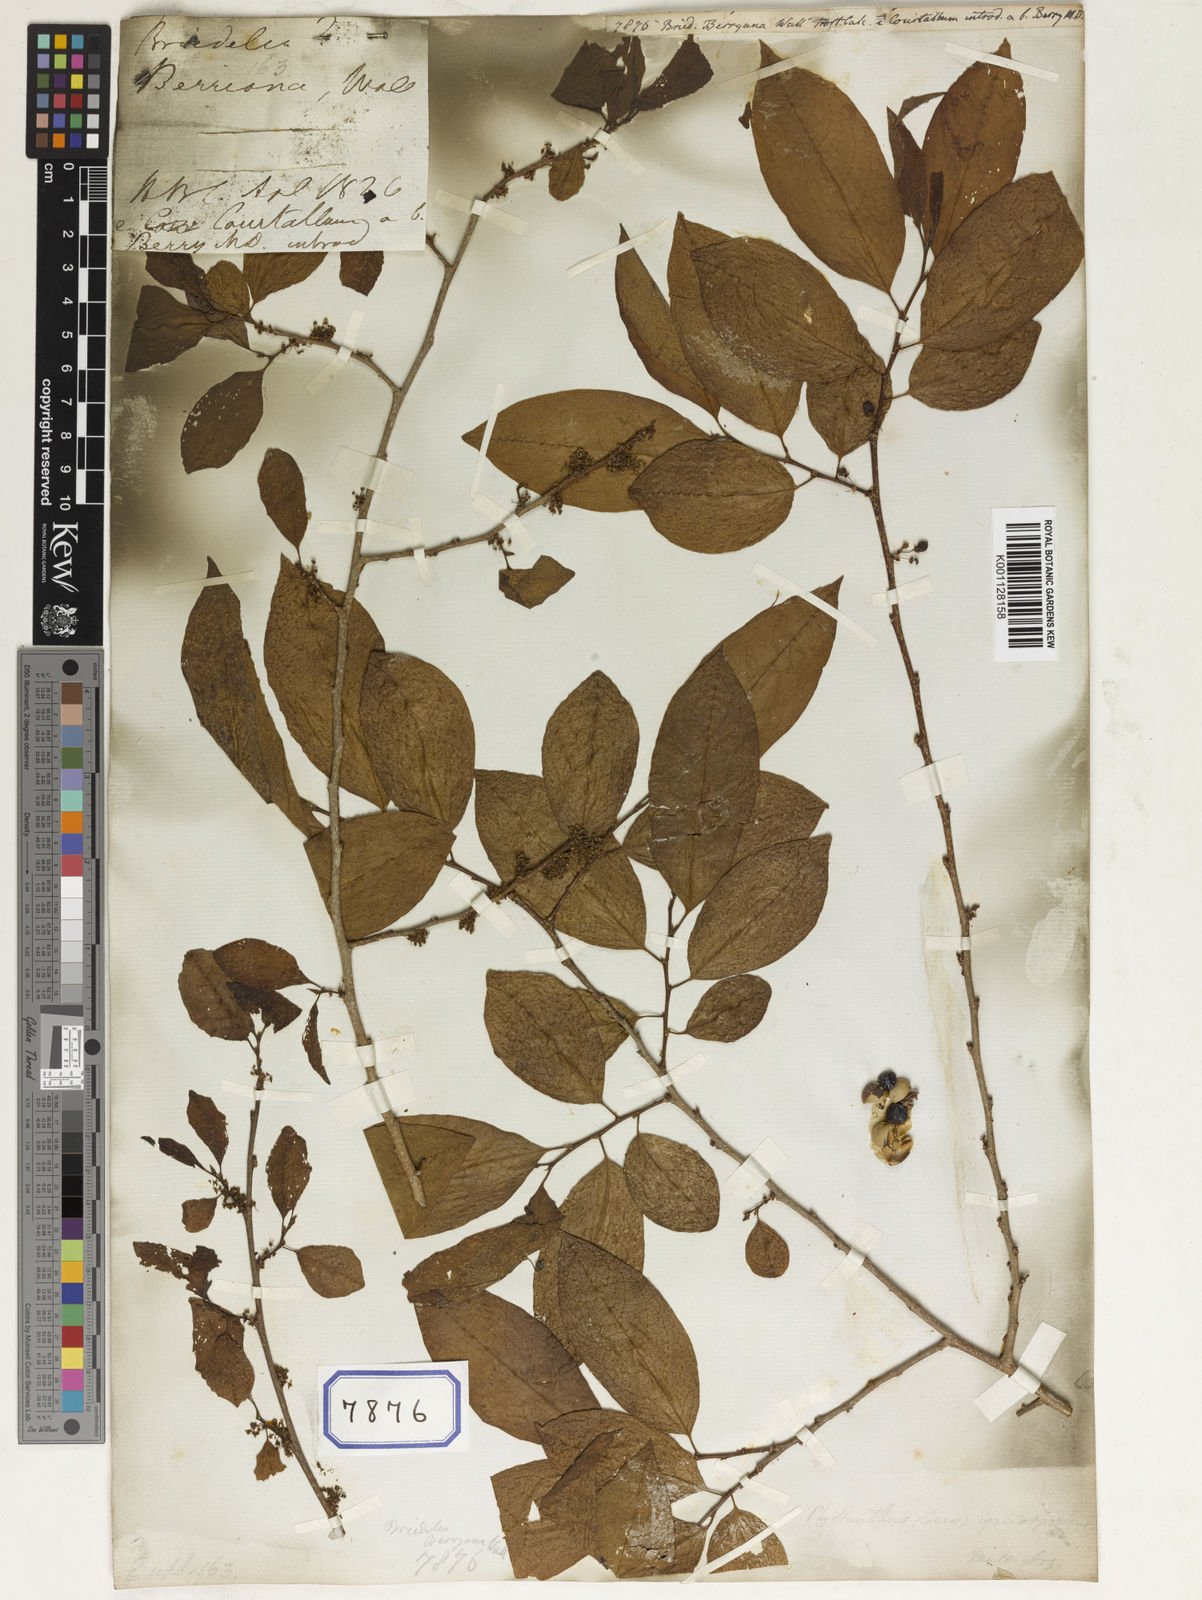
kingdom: Plantae
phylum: Tracheophyta
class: Magnoliopsida
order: Malpighiales
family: Euphorbiaceae
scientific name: Euphorbiaceae
